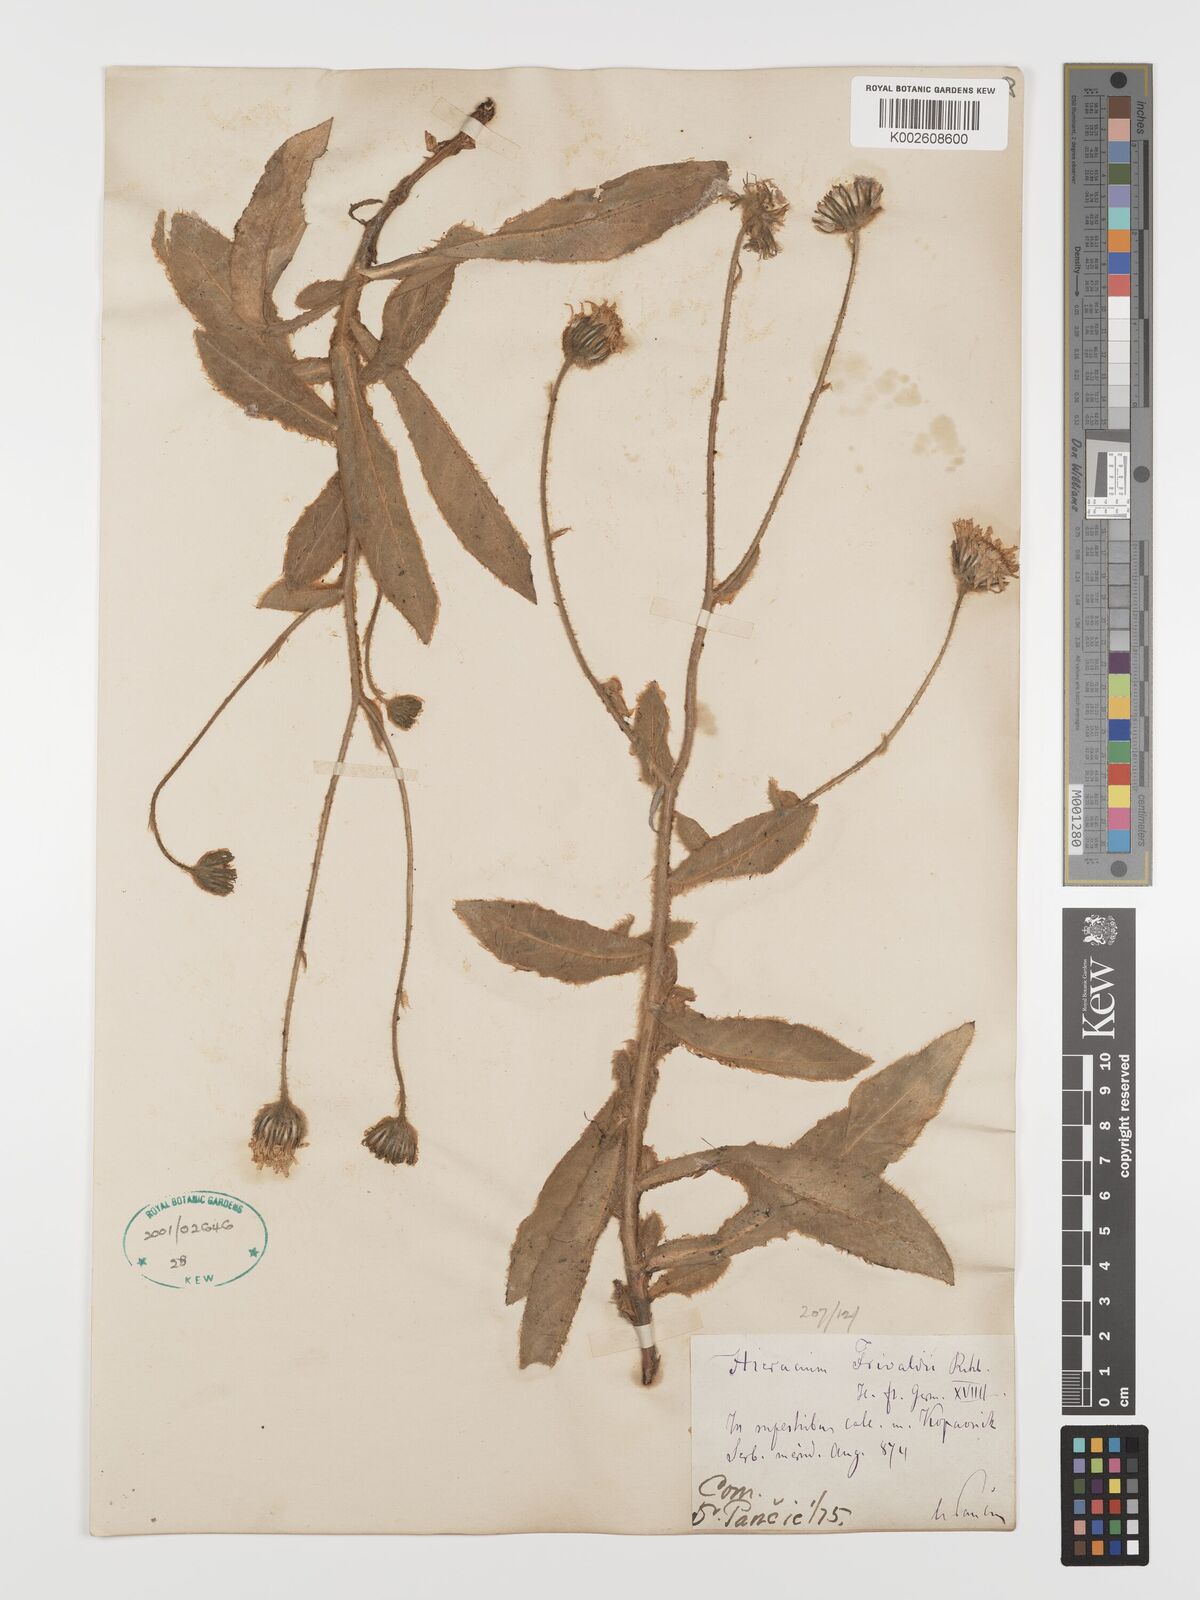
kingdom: Plantae
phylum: Tracheophyta
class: Magnoliopsida
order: Asterales
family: Asteraceae
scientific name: Asteraceae
